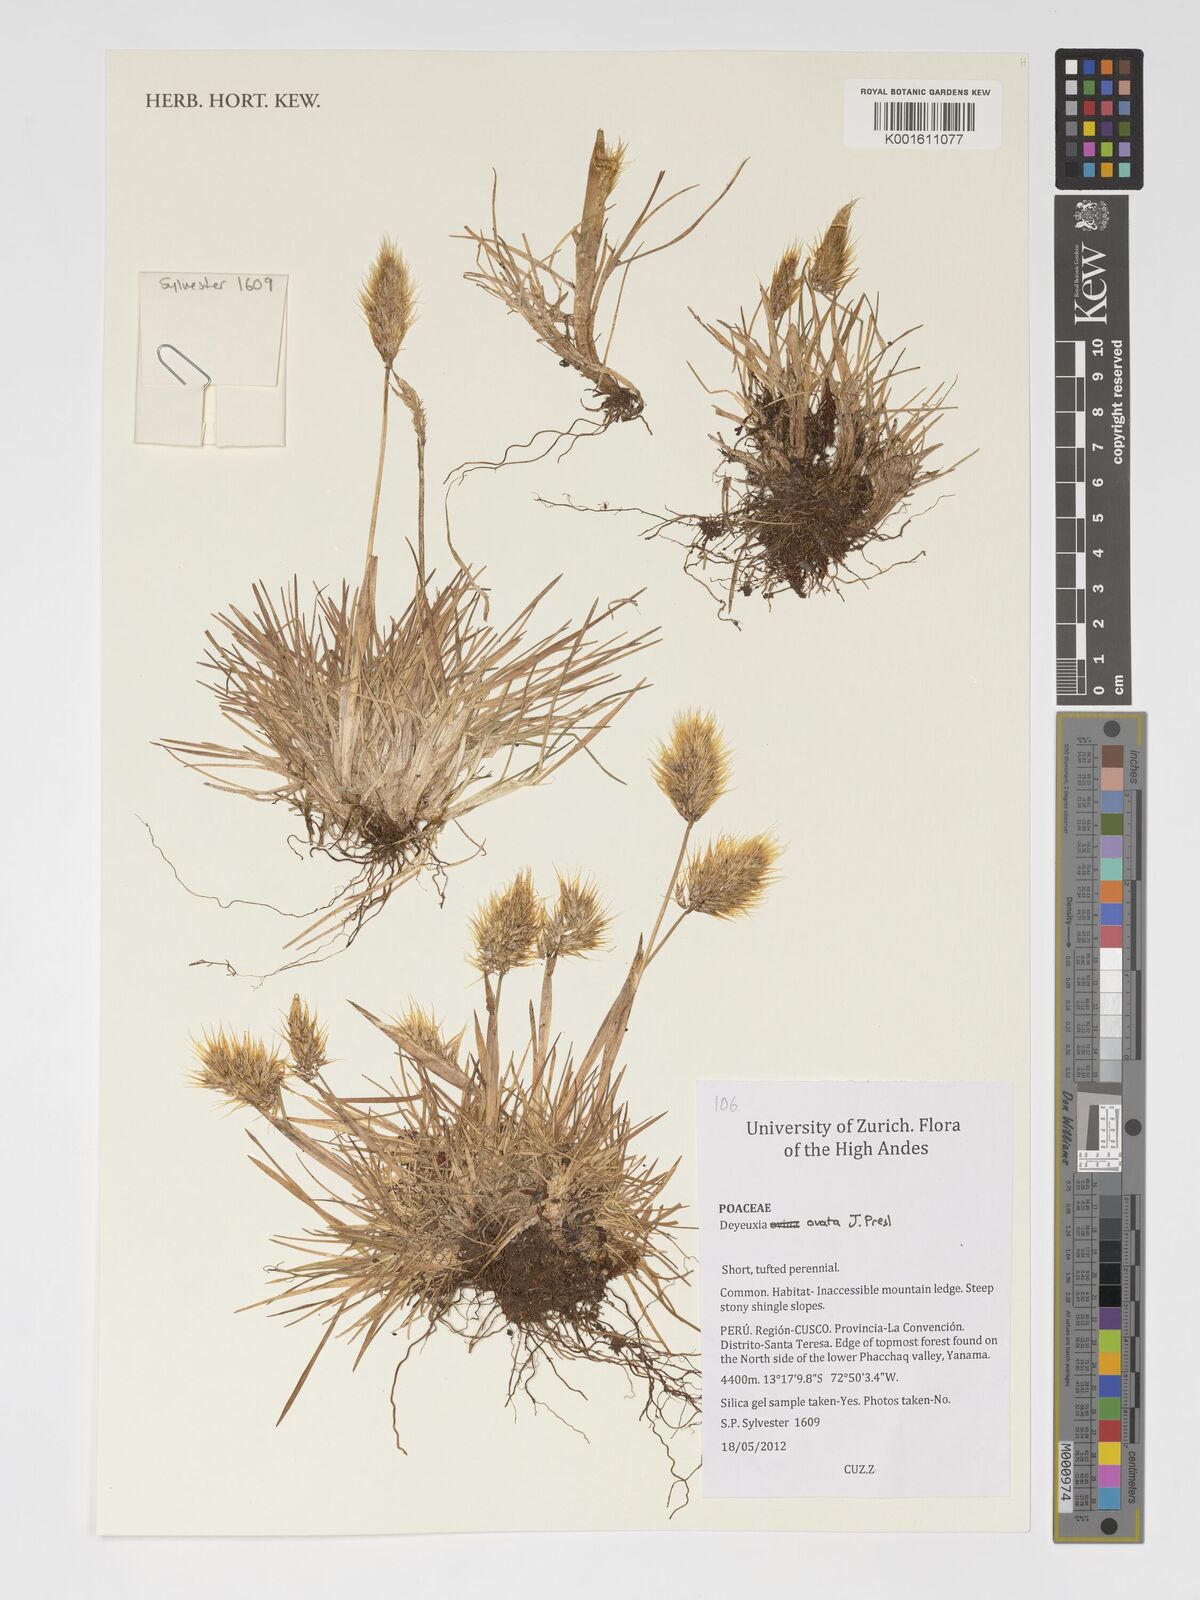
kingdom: Plantae
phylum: Tracheophyta
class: Liliopsida
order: Poales
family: Poaceae
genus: Deschampsia
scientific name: Deschampsia ovata
